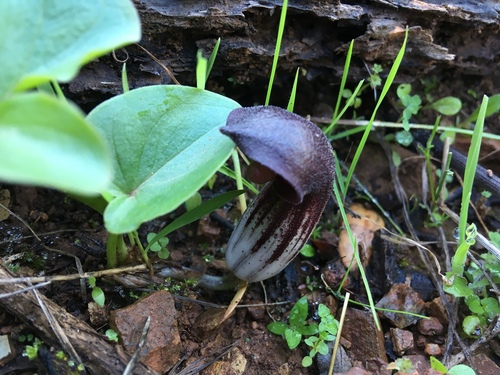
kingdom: Plantae
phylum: Tracheophyta
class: Liliopsida
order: Alismatales
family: Araceae
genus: Arisarum
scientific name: Arisarum simorrhinum
